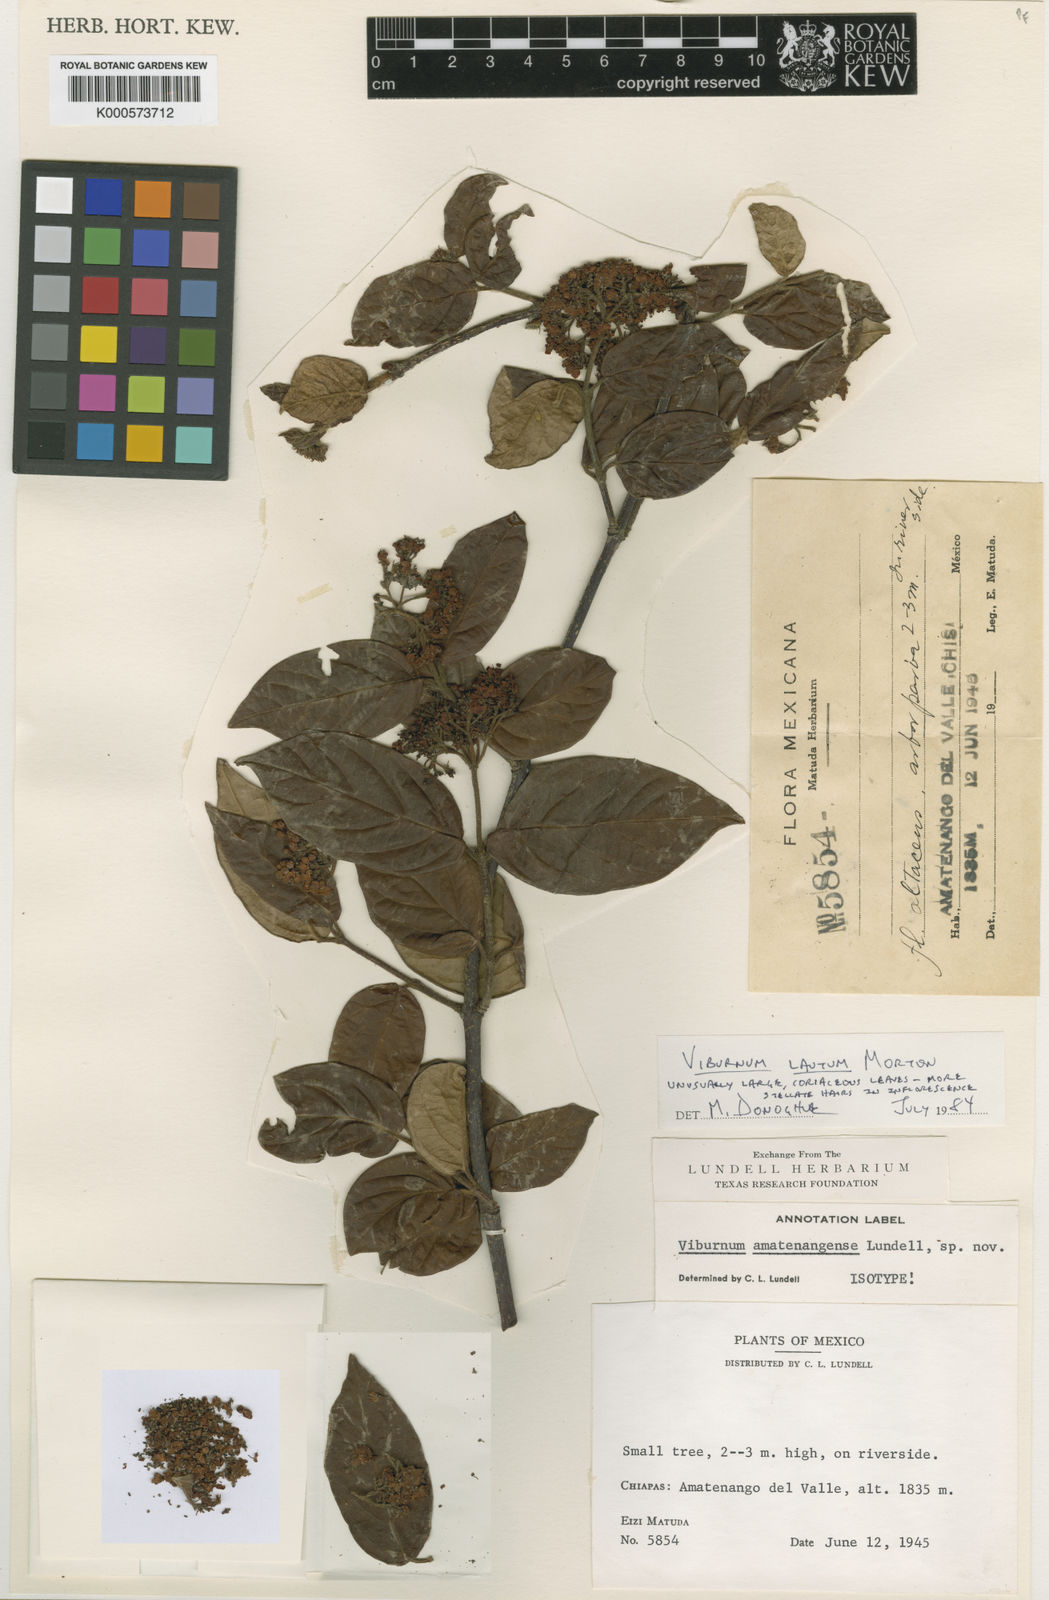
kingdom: Plantae
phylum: Tracheophyta
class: Magnoliopsida
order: Dipsacales
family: Viburnaceae
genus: Viburnum
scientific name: Viburnum lautum
